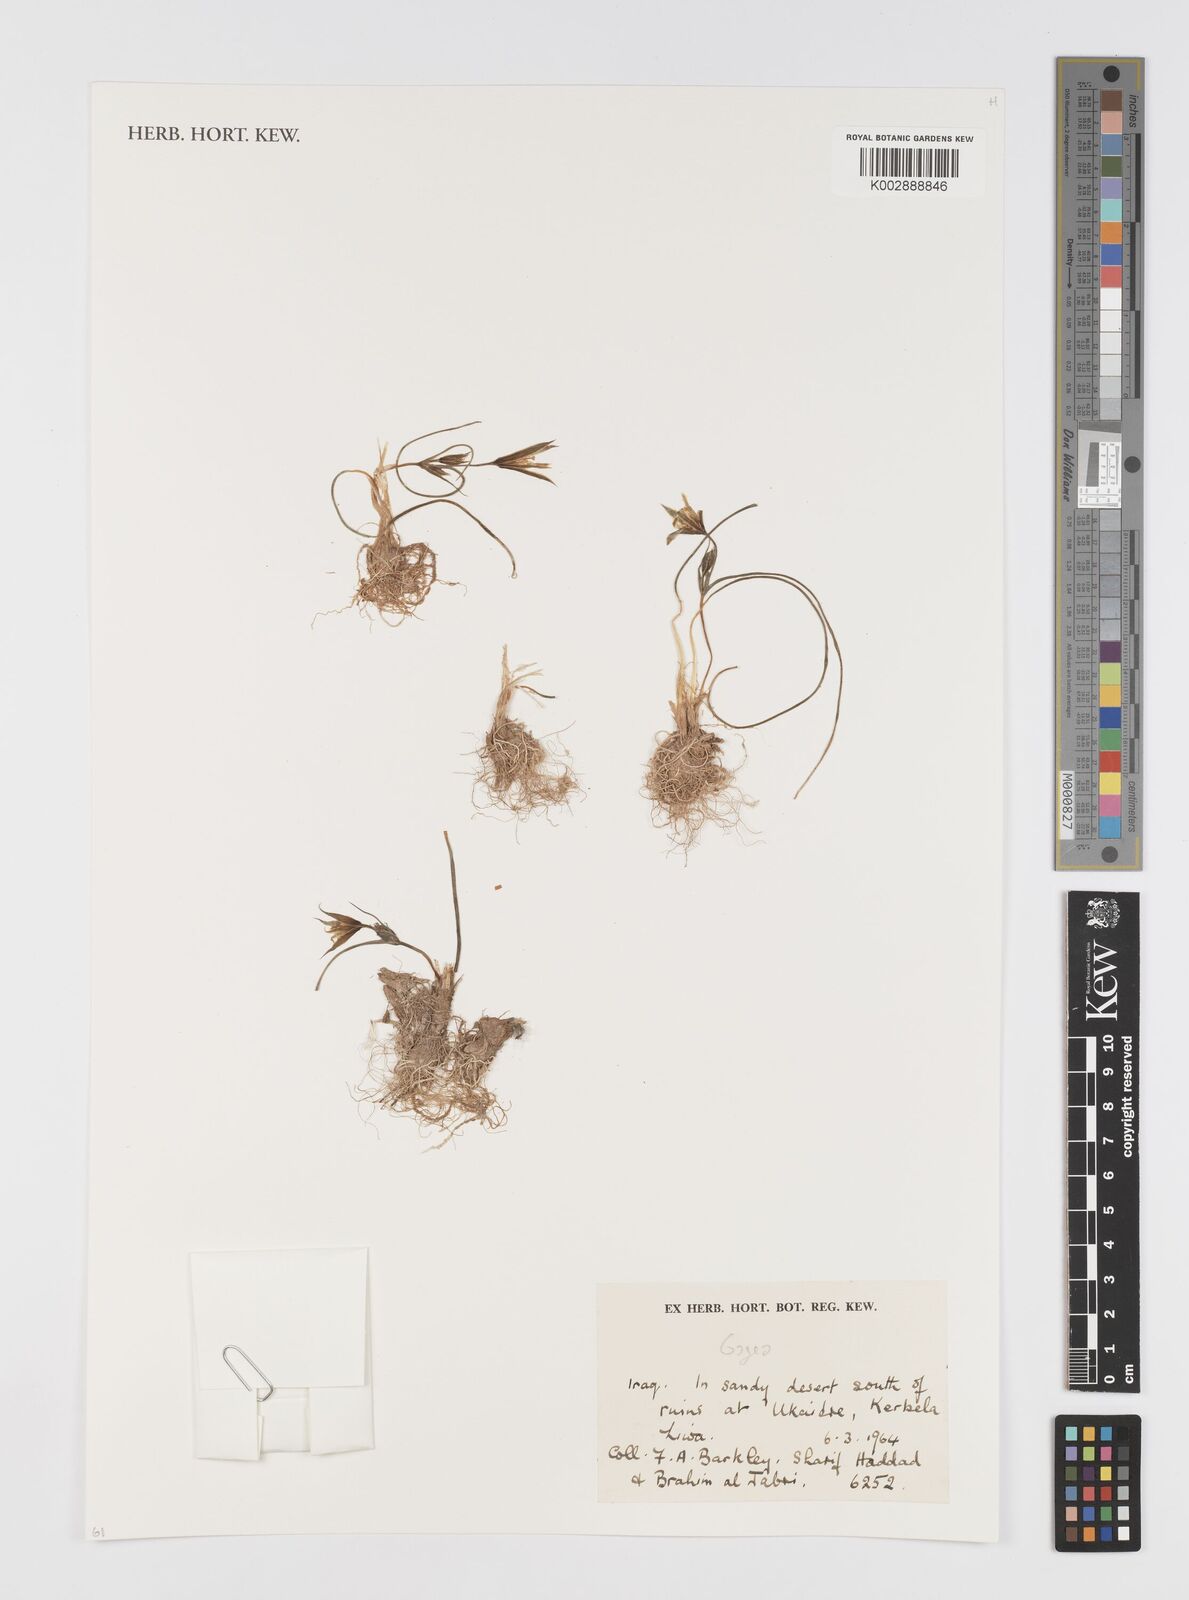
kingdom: Plantae
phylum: Tracheophyta
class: Liliopsida
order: Liliales
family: Liliaceae
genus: Gagea
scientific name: Gagea
